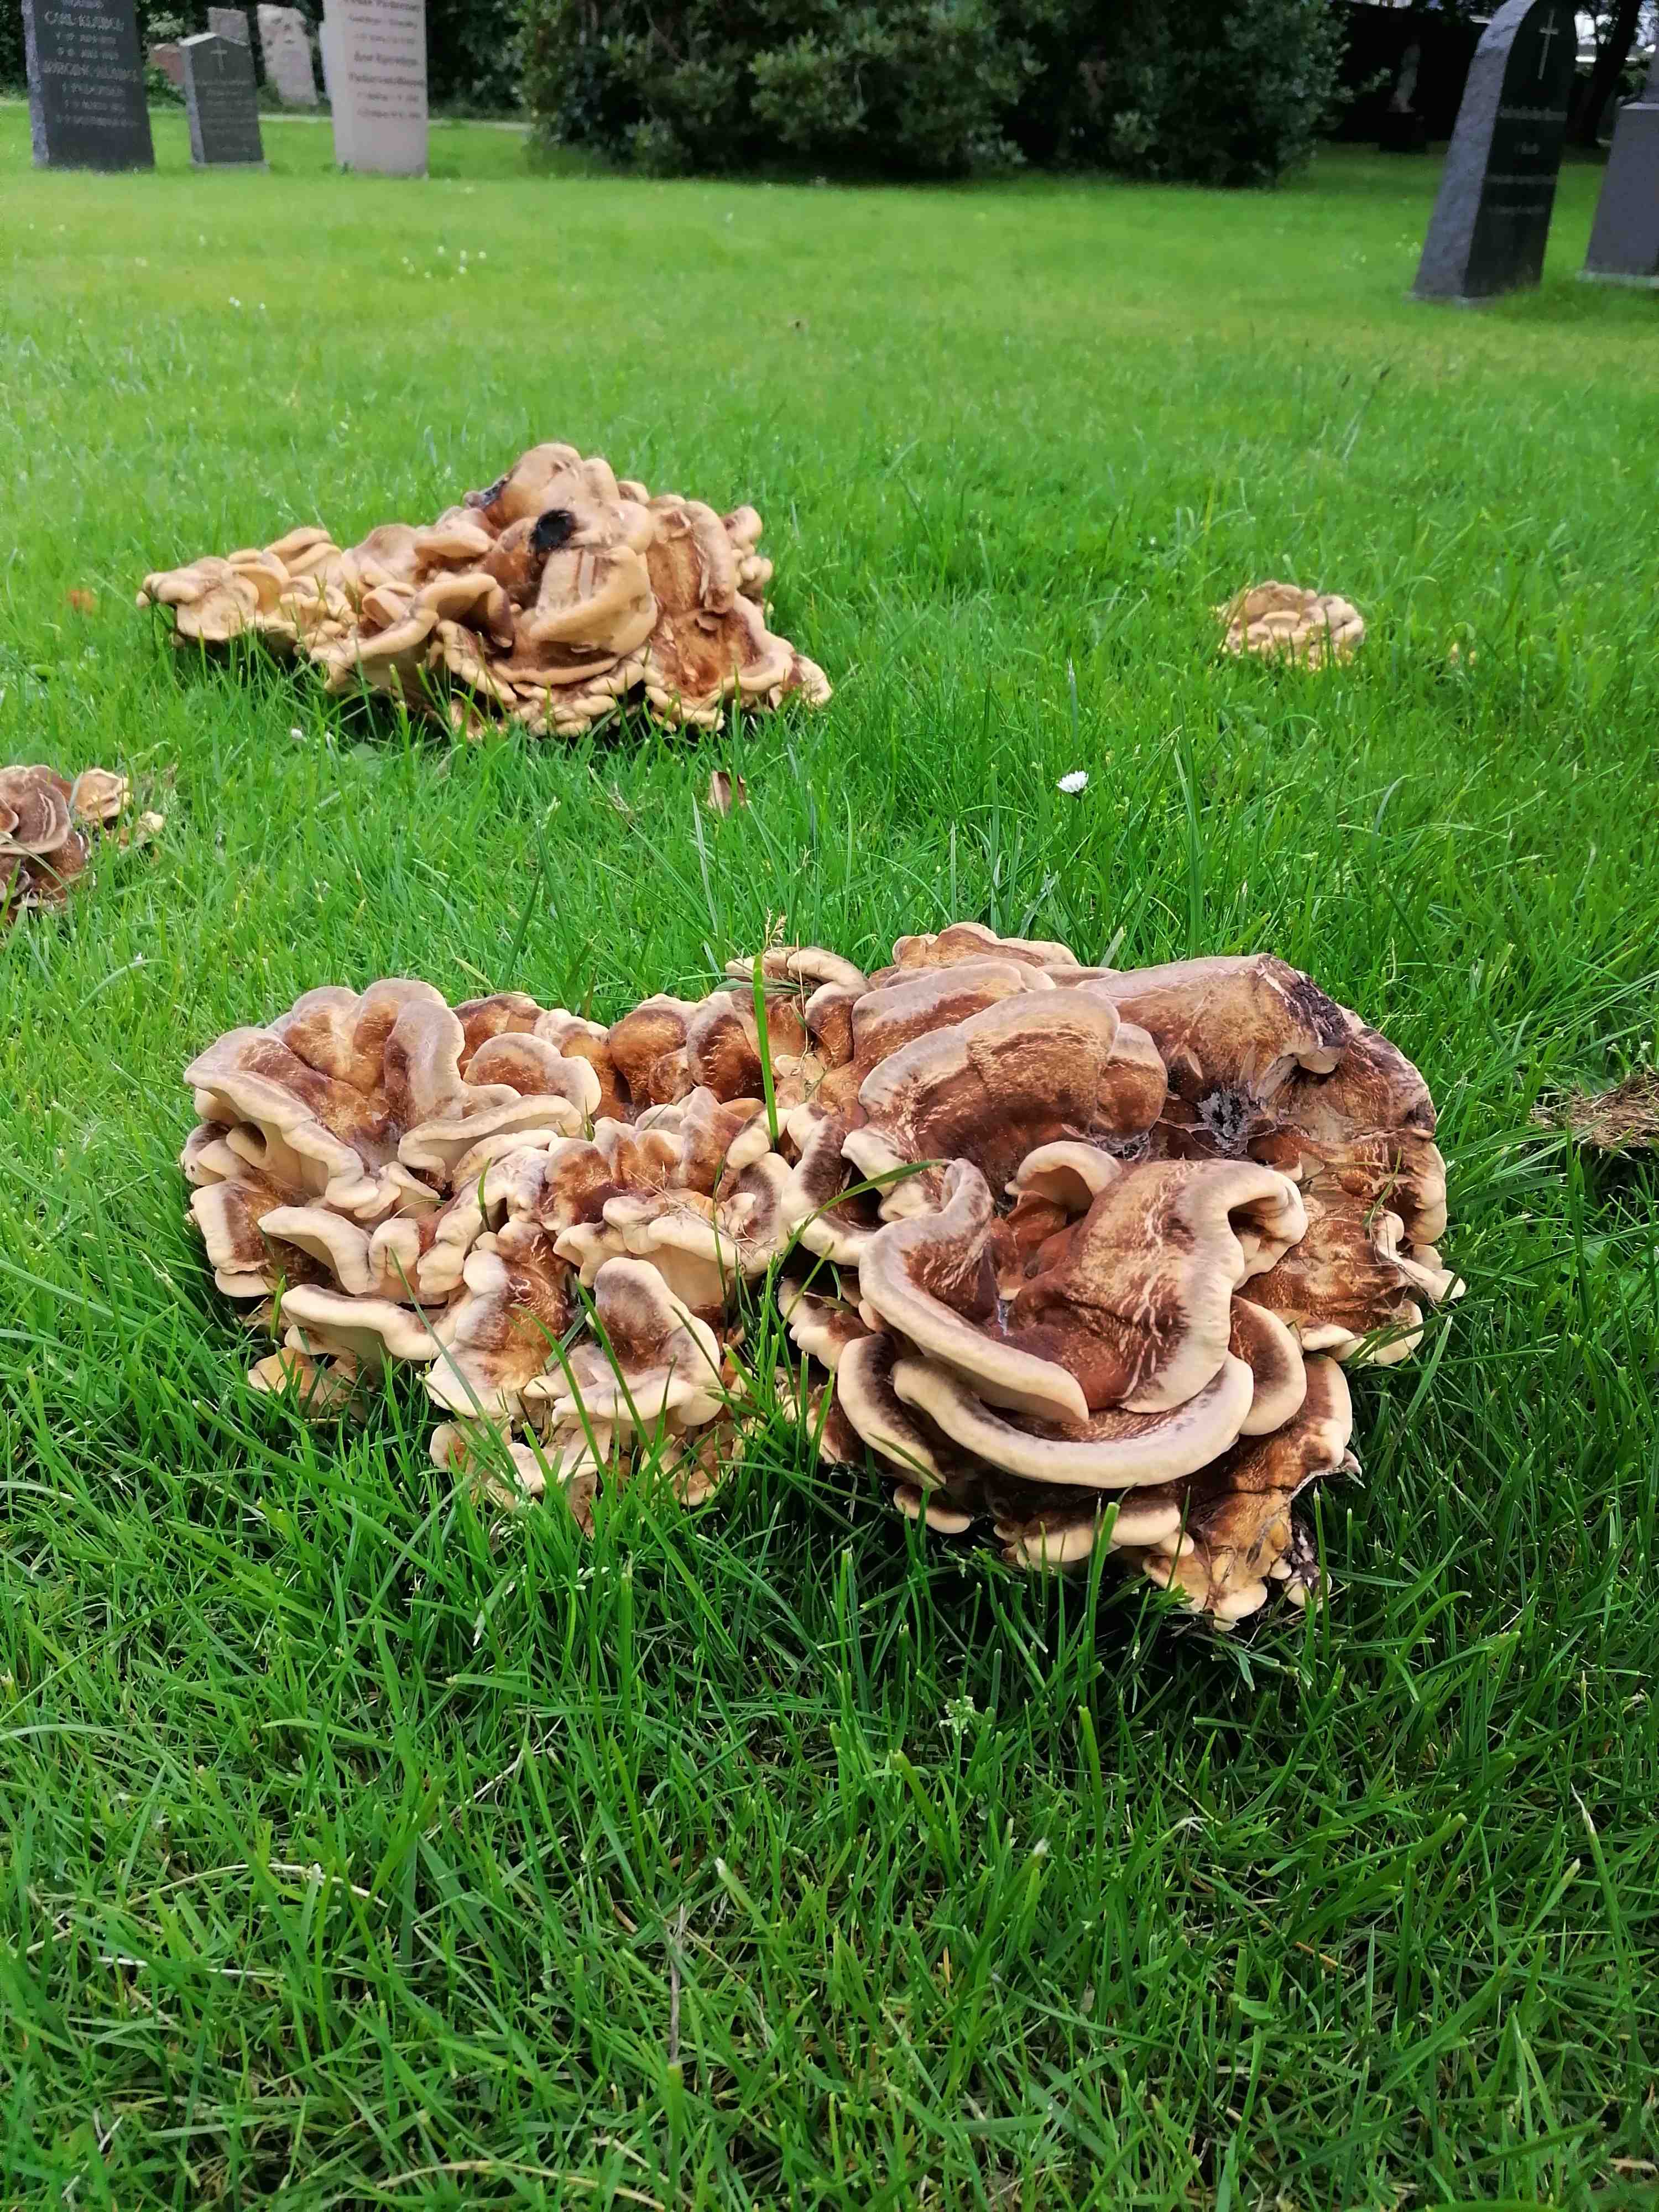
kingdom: Fungi
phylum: Basidiomycota
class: Agaricomycetes
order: Polyporales
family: Meripilaceae
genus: Meripilus
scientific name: Meripilus giganteus
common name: kæmpeporesvamp
